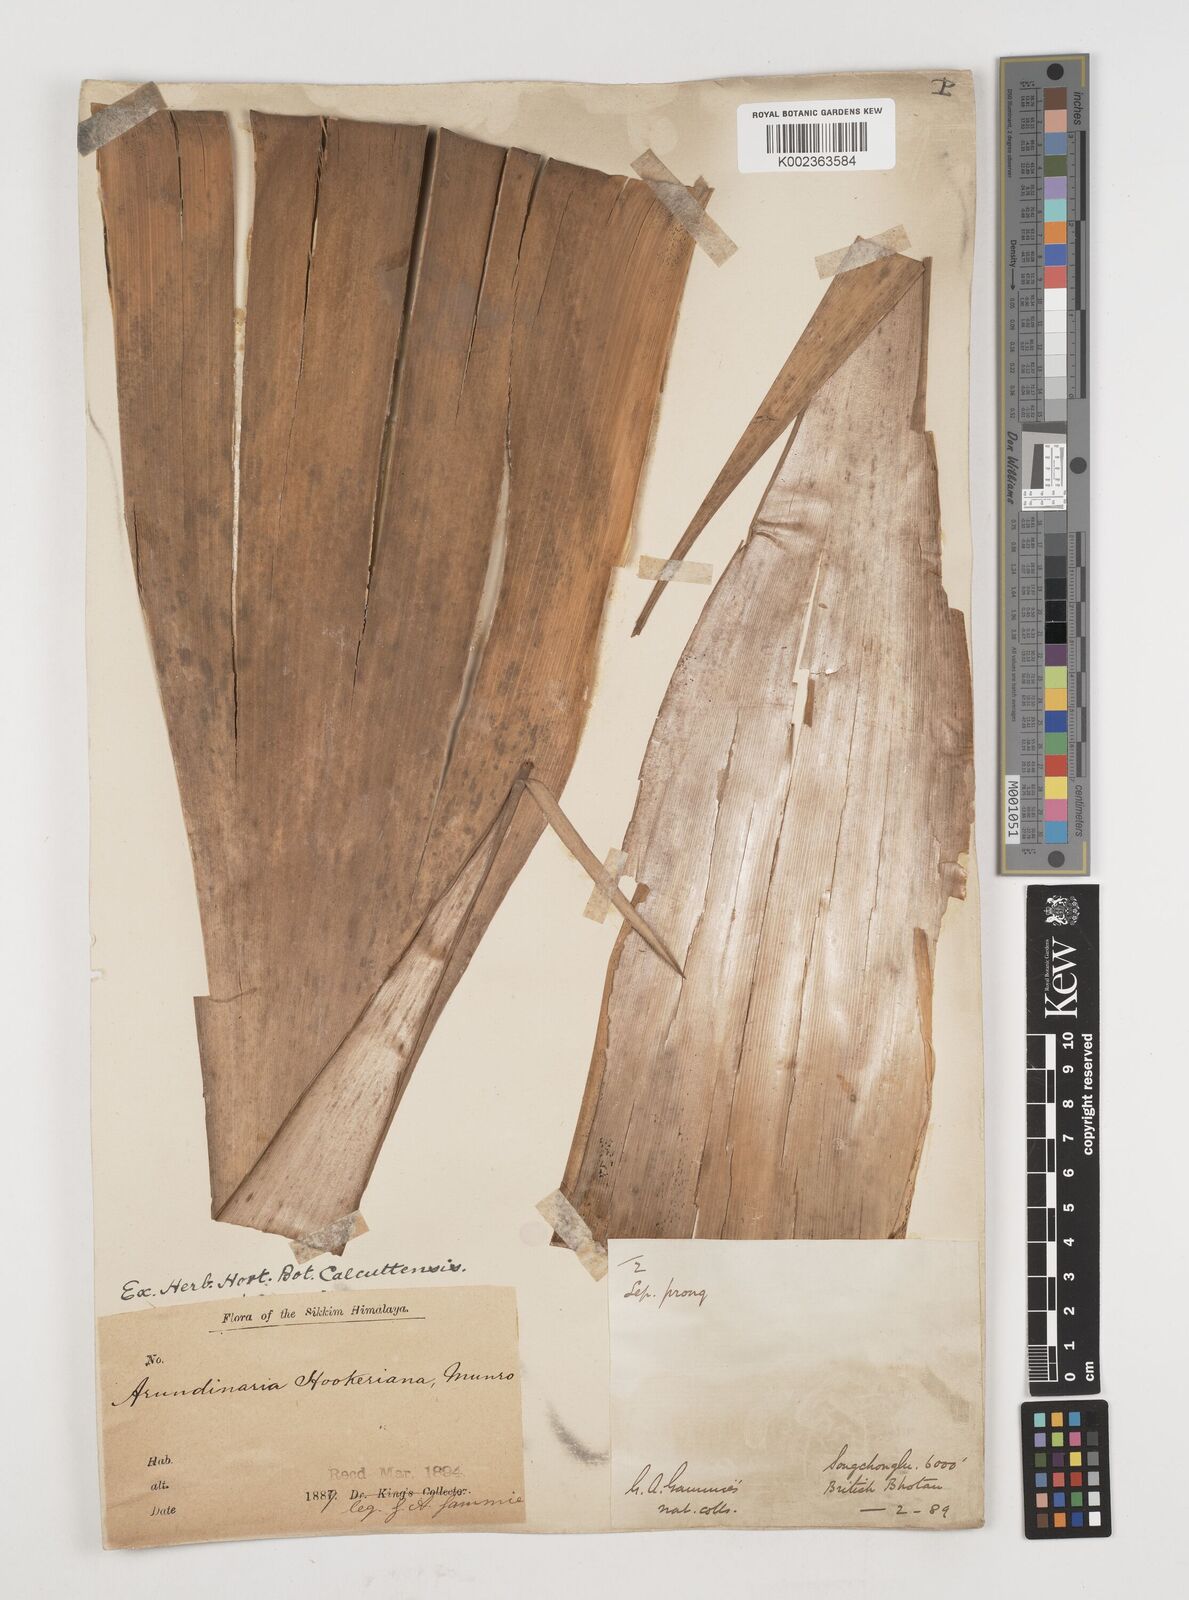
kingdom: Plantae
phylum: Tracheophyta
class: Liliopsida
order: Poales
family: Poaceae
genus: Himalayacalamus
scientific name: Himalayacalamus hookerianus
